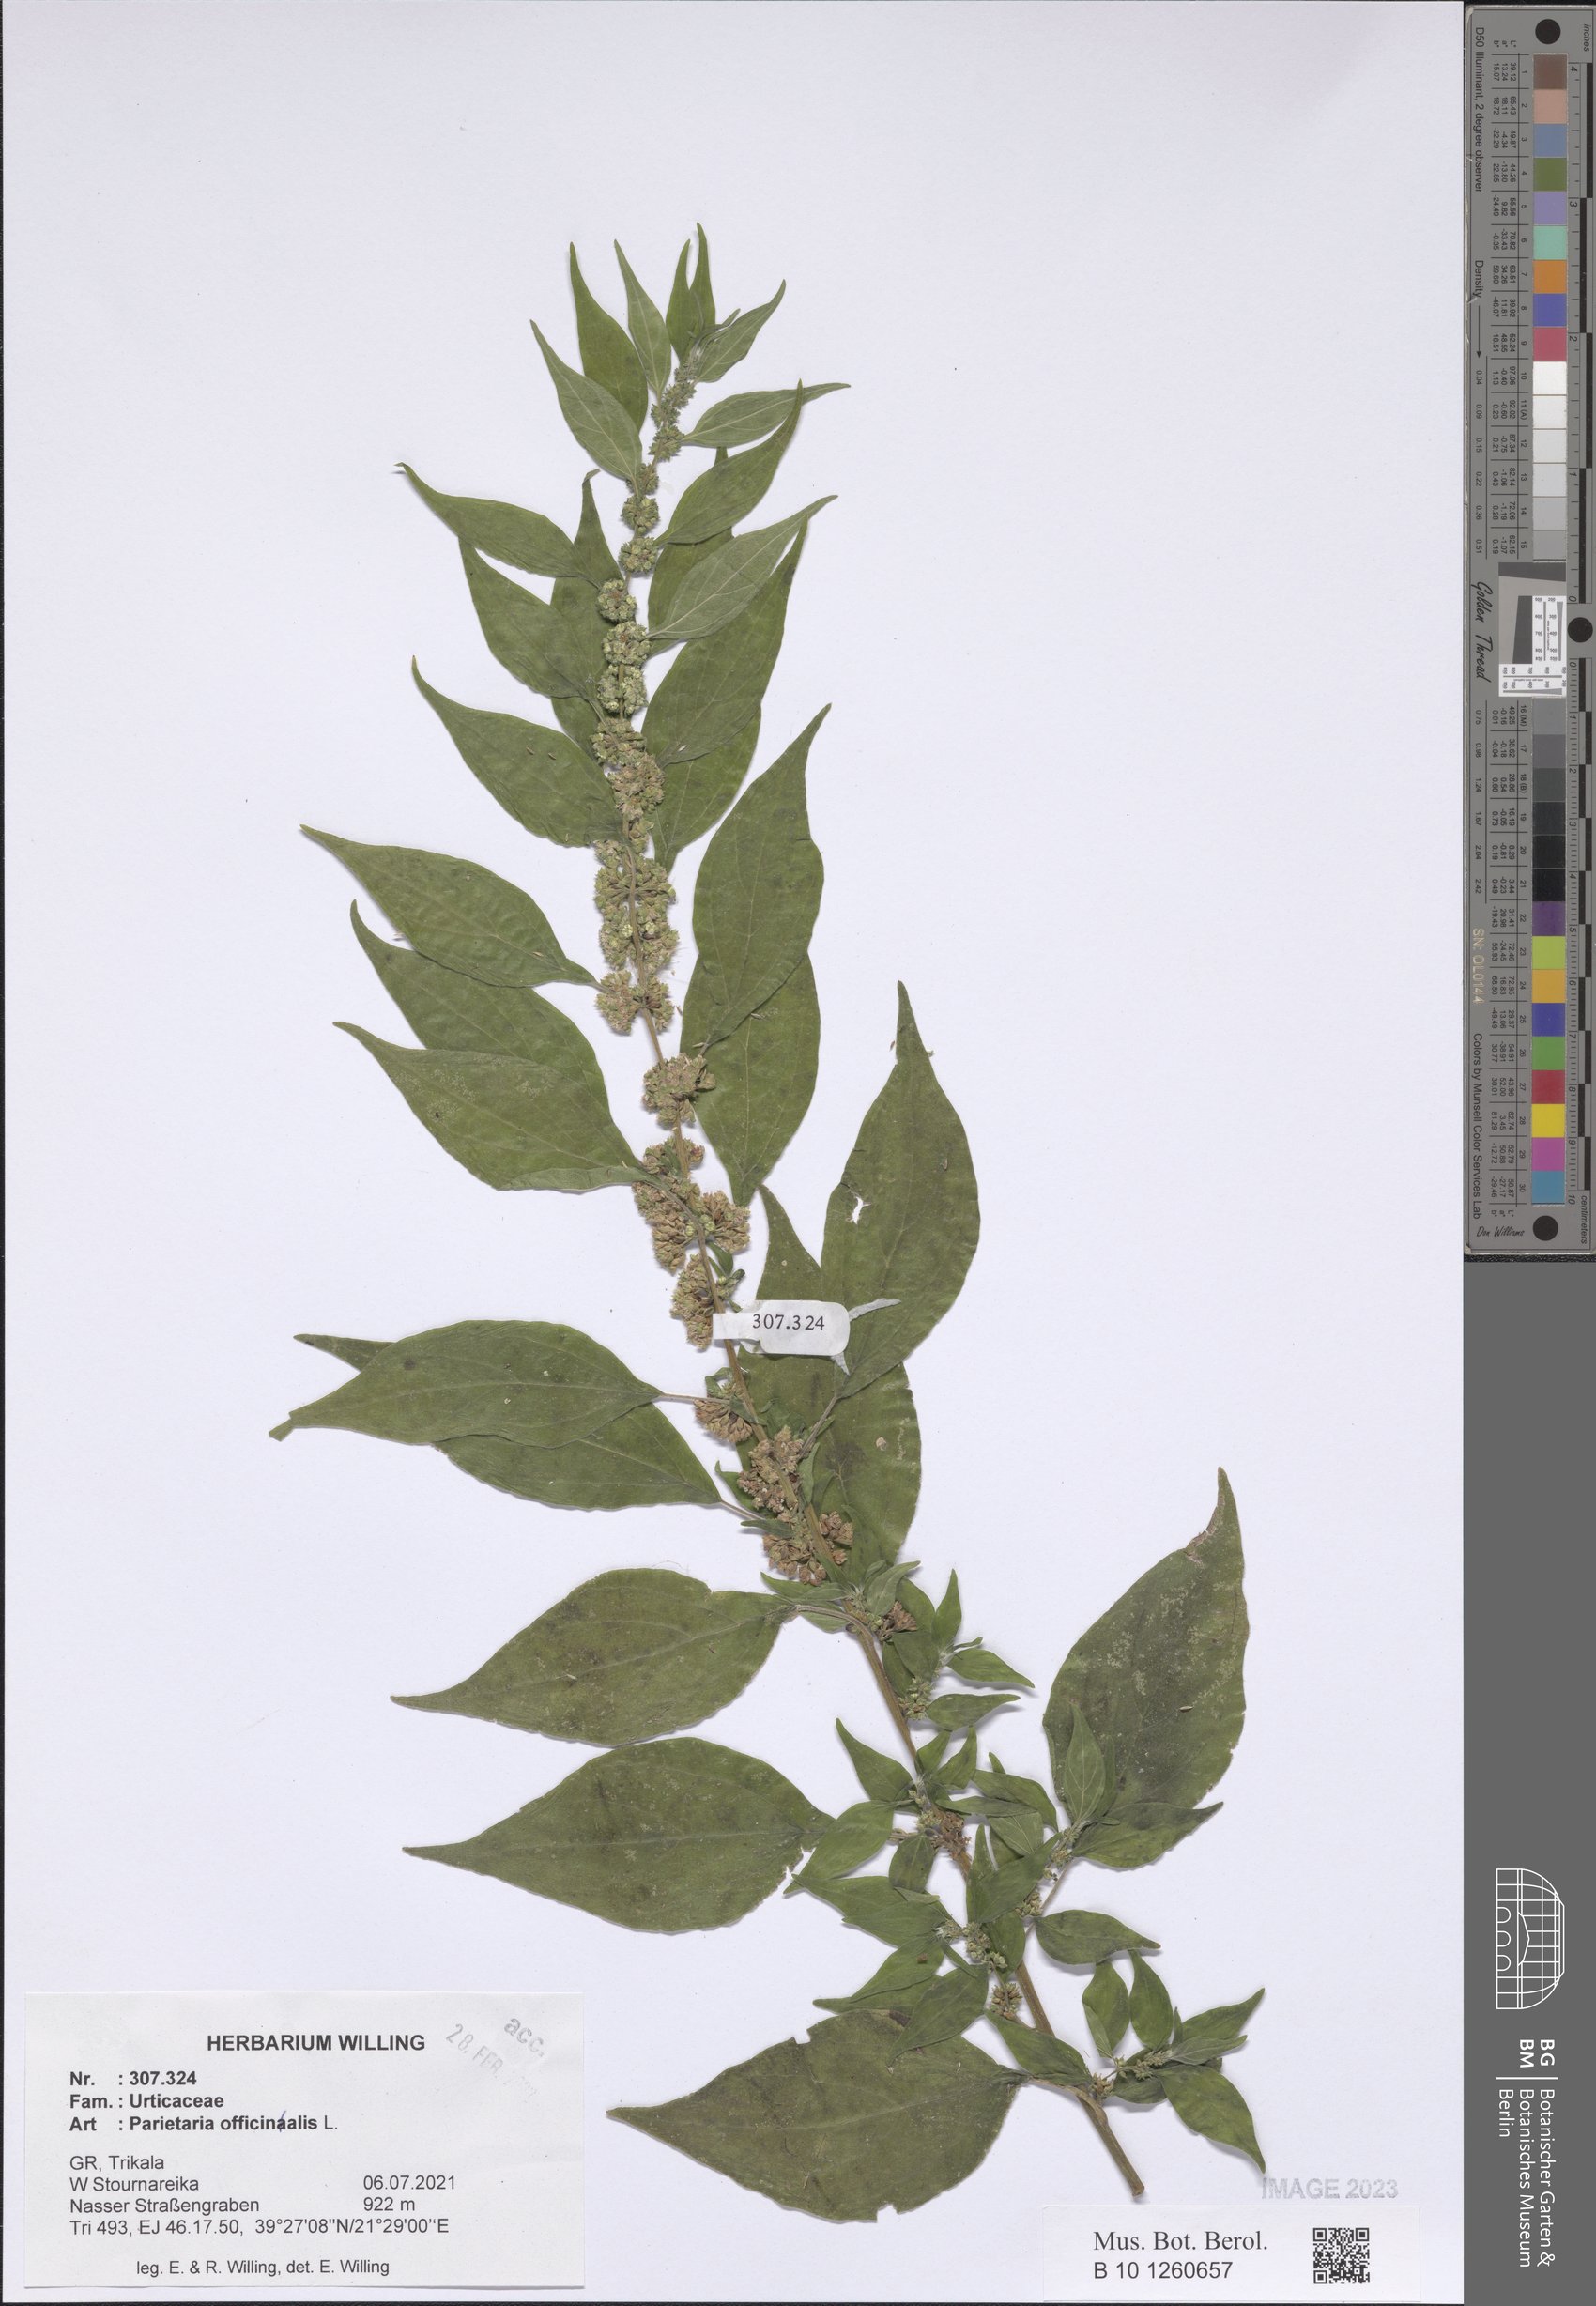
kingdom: Plantae
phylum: Tracheophyta
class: Magnoliopsida
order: Rosales
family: Urticaceae
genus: Parietaria
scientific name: Parietaria officinalis
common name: Eastern pellitory-of-the-wall
